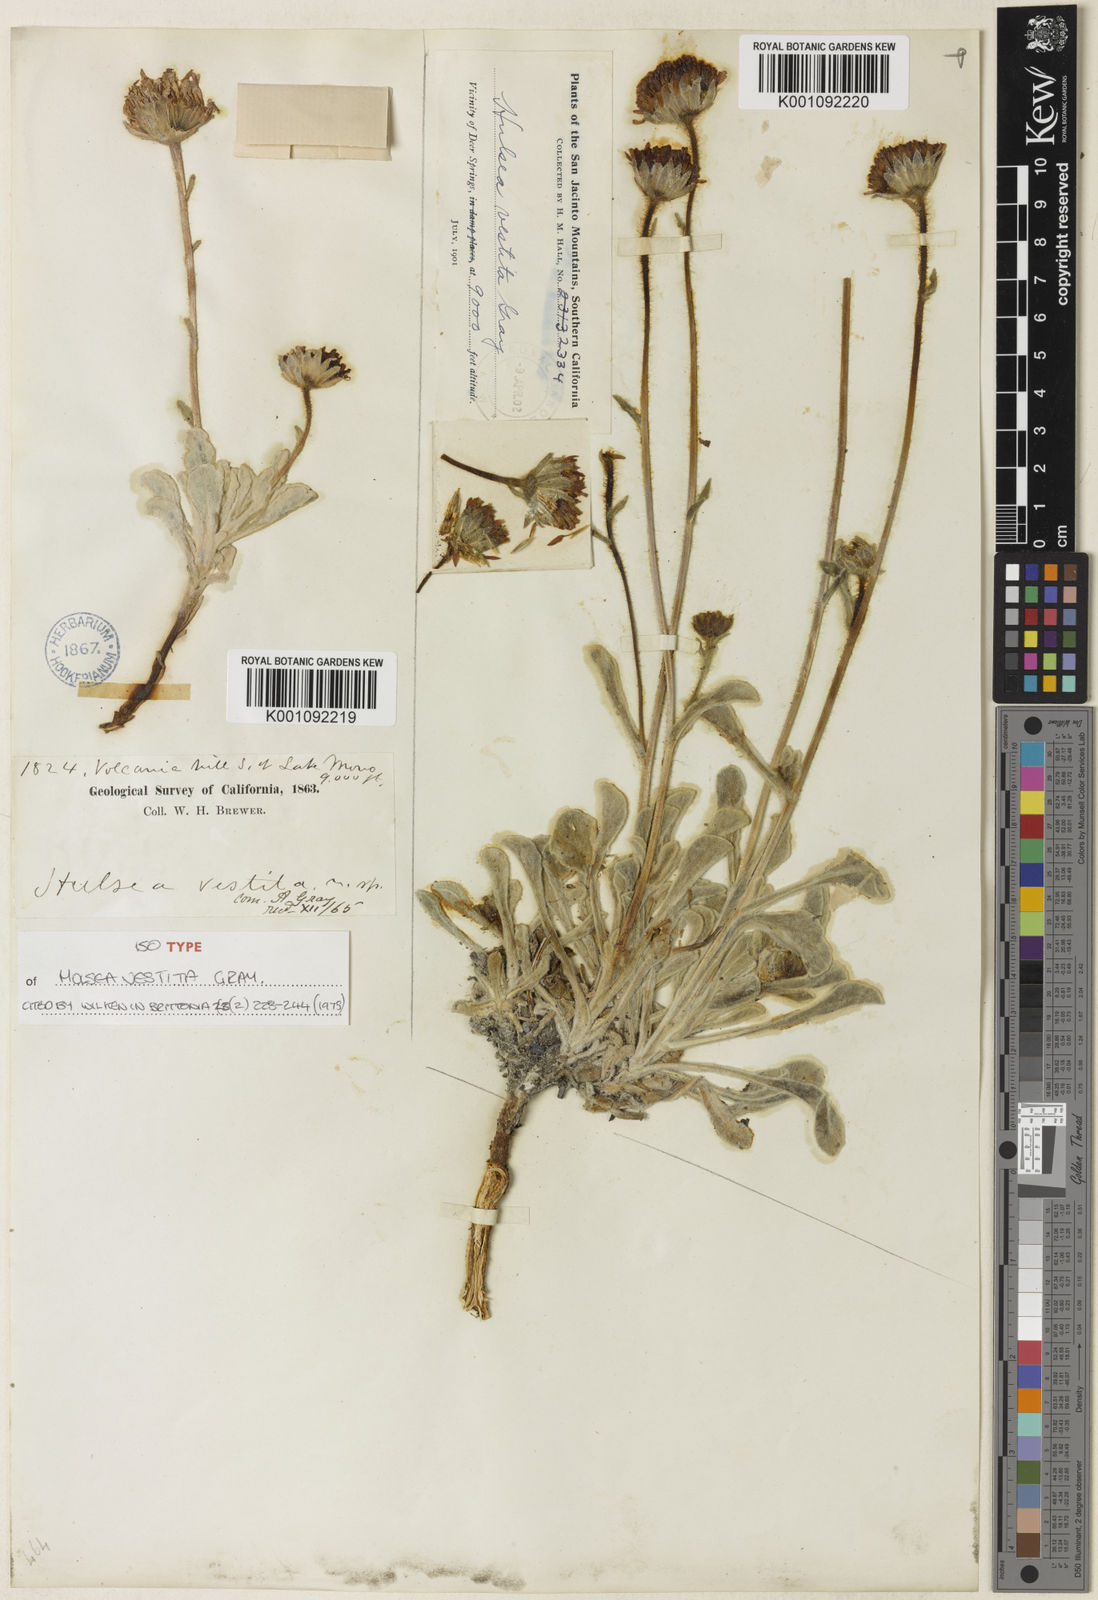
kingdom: Plantae
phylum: Tracheophyta
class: Magnoliopsida
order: Asterales
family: Asteraceae
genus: Hulsea
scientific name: Hulsea vestita
